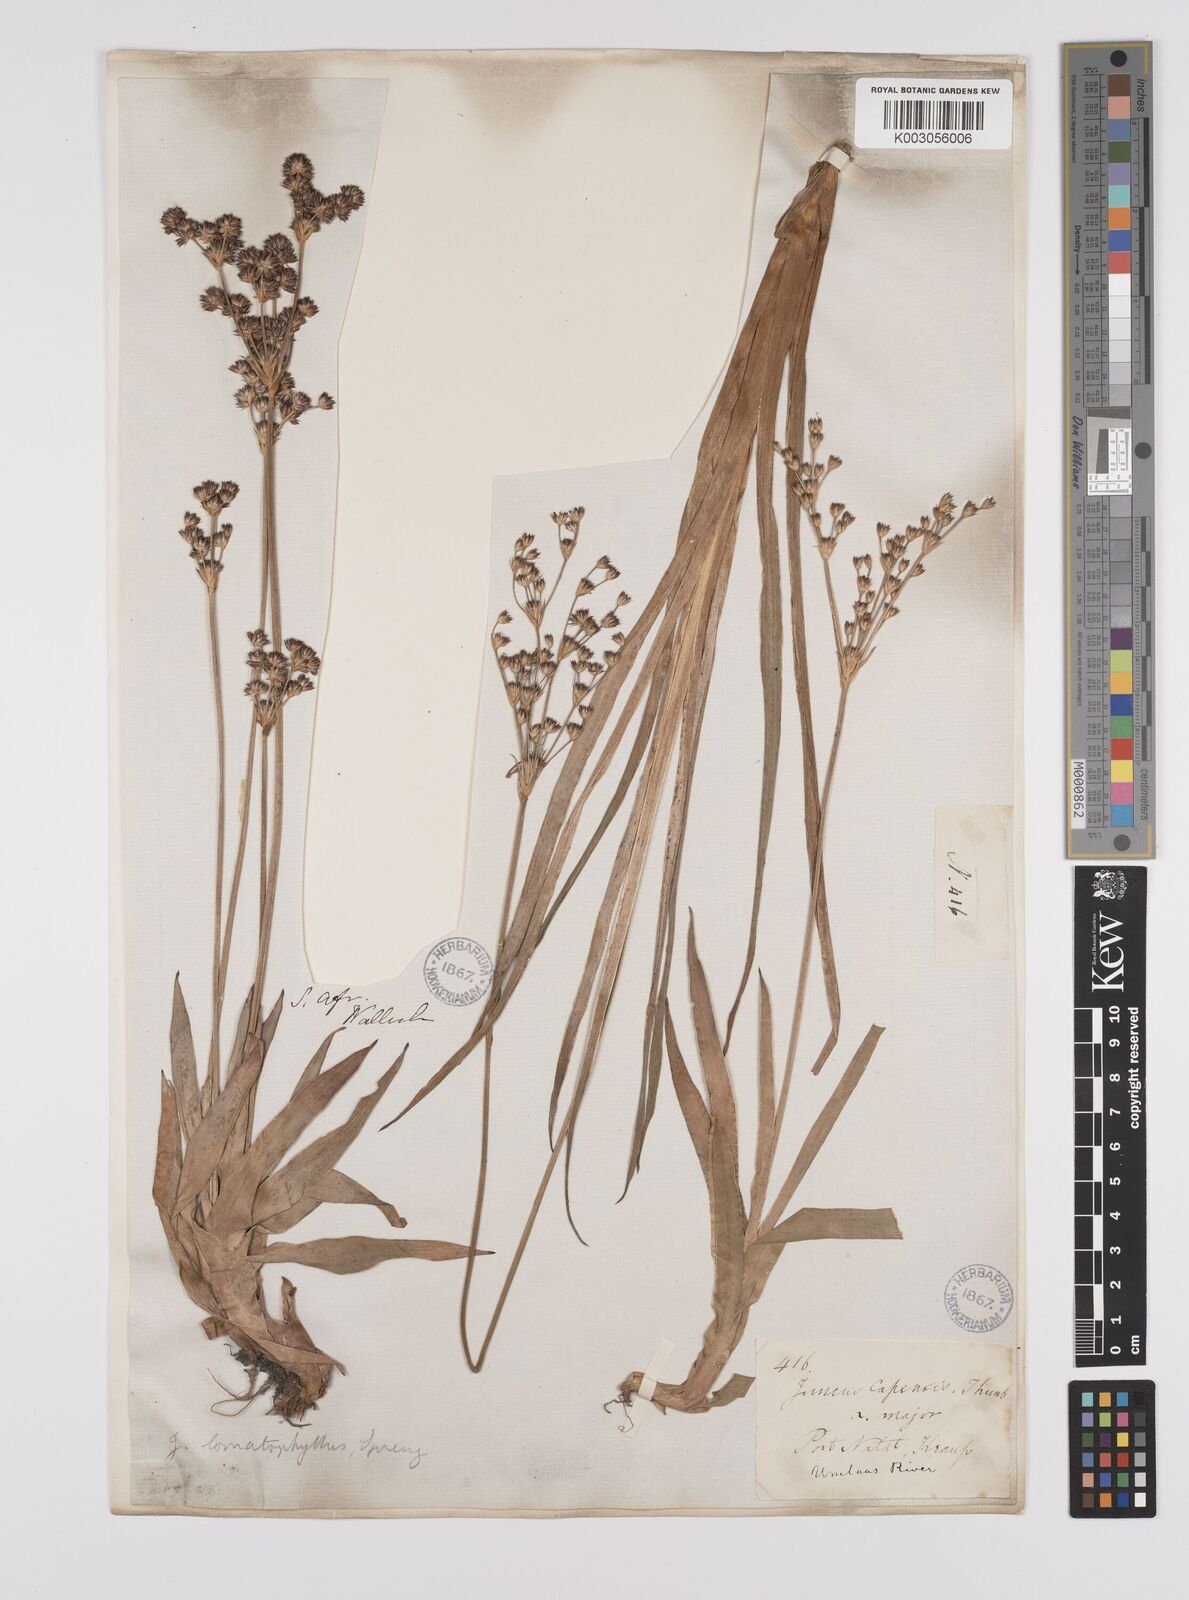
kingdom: Plantae
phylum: Tracheophyta
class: Liliopsida
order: Poales
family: Juncaceae
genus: Juncus
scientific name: Juncus lomatophyllus
